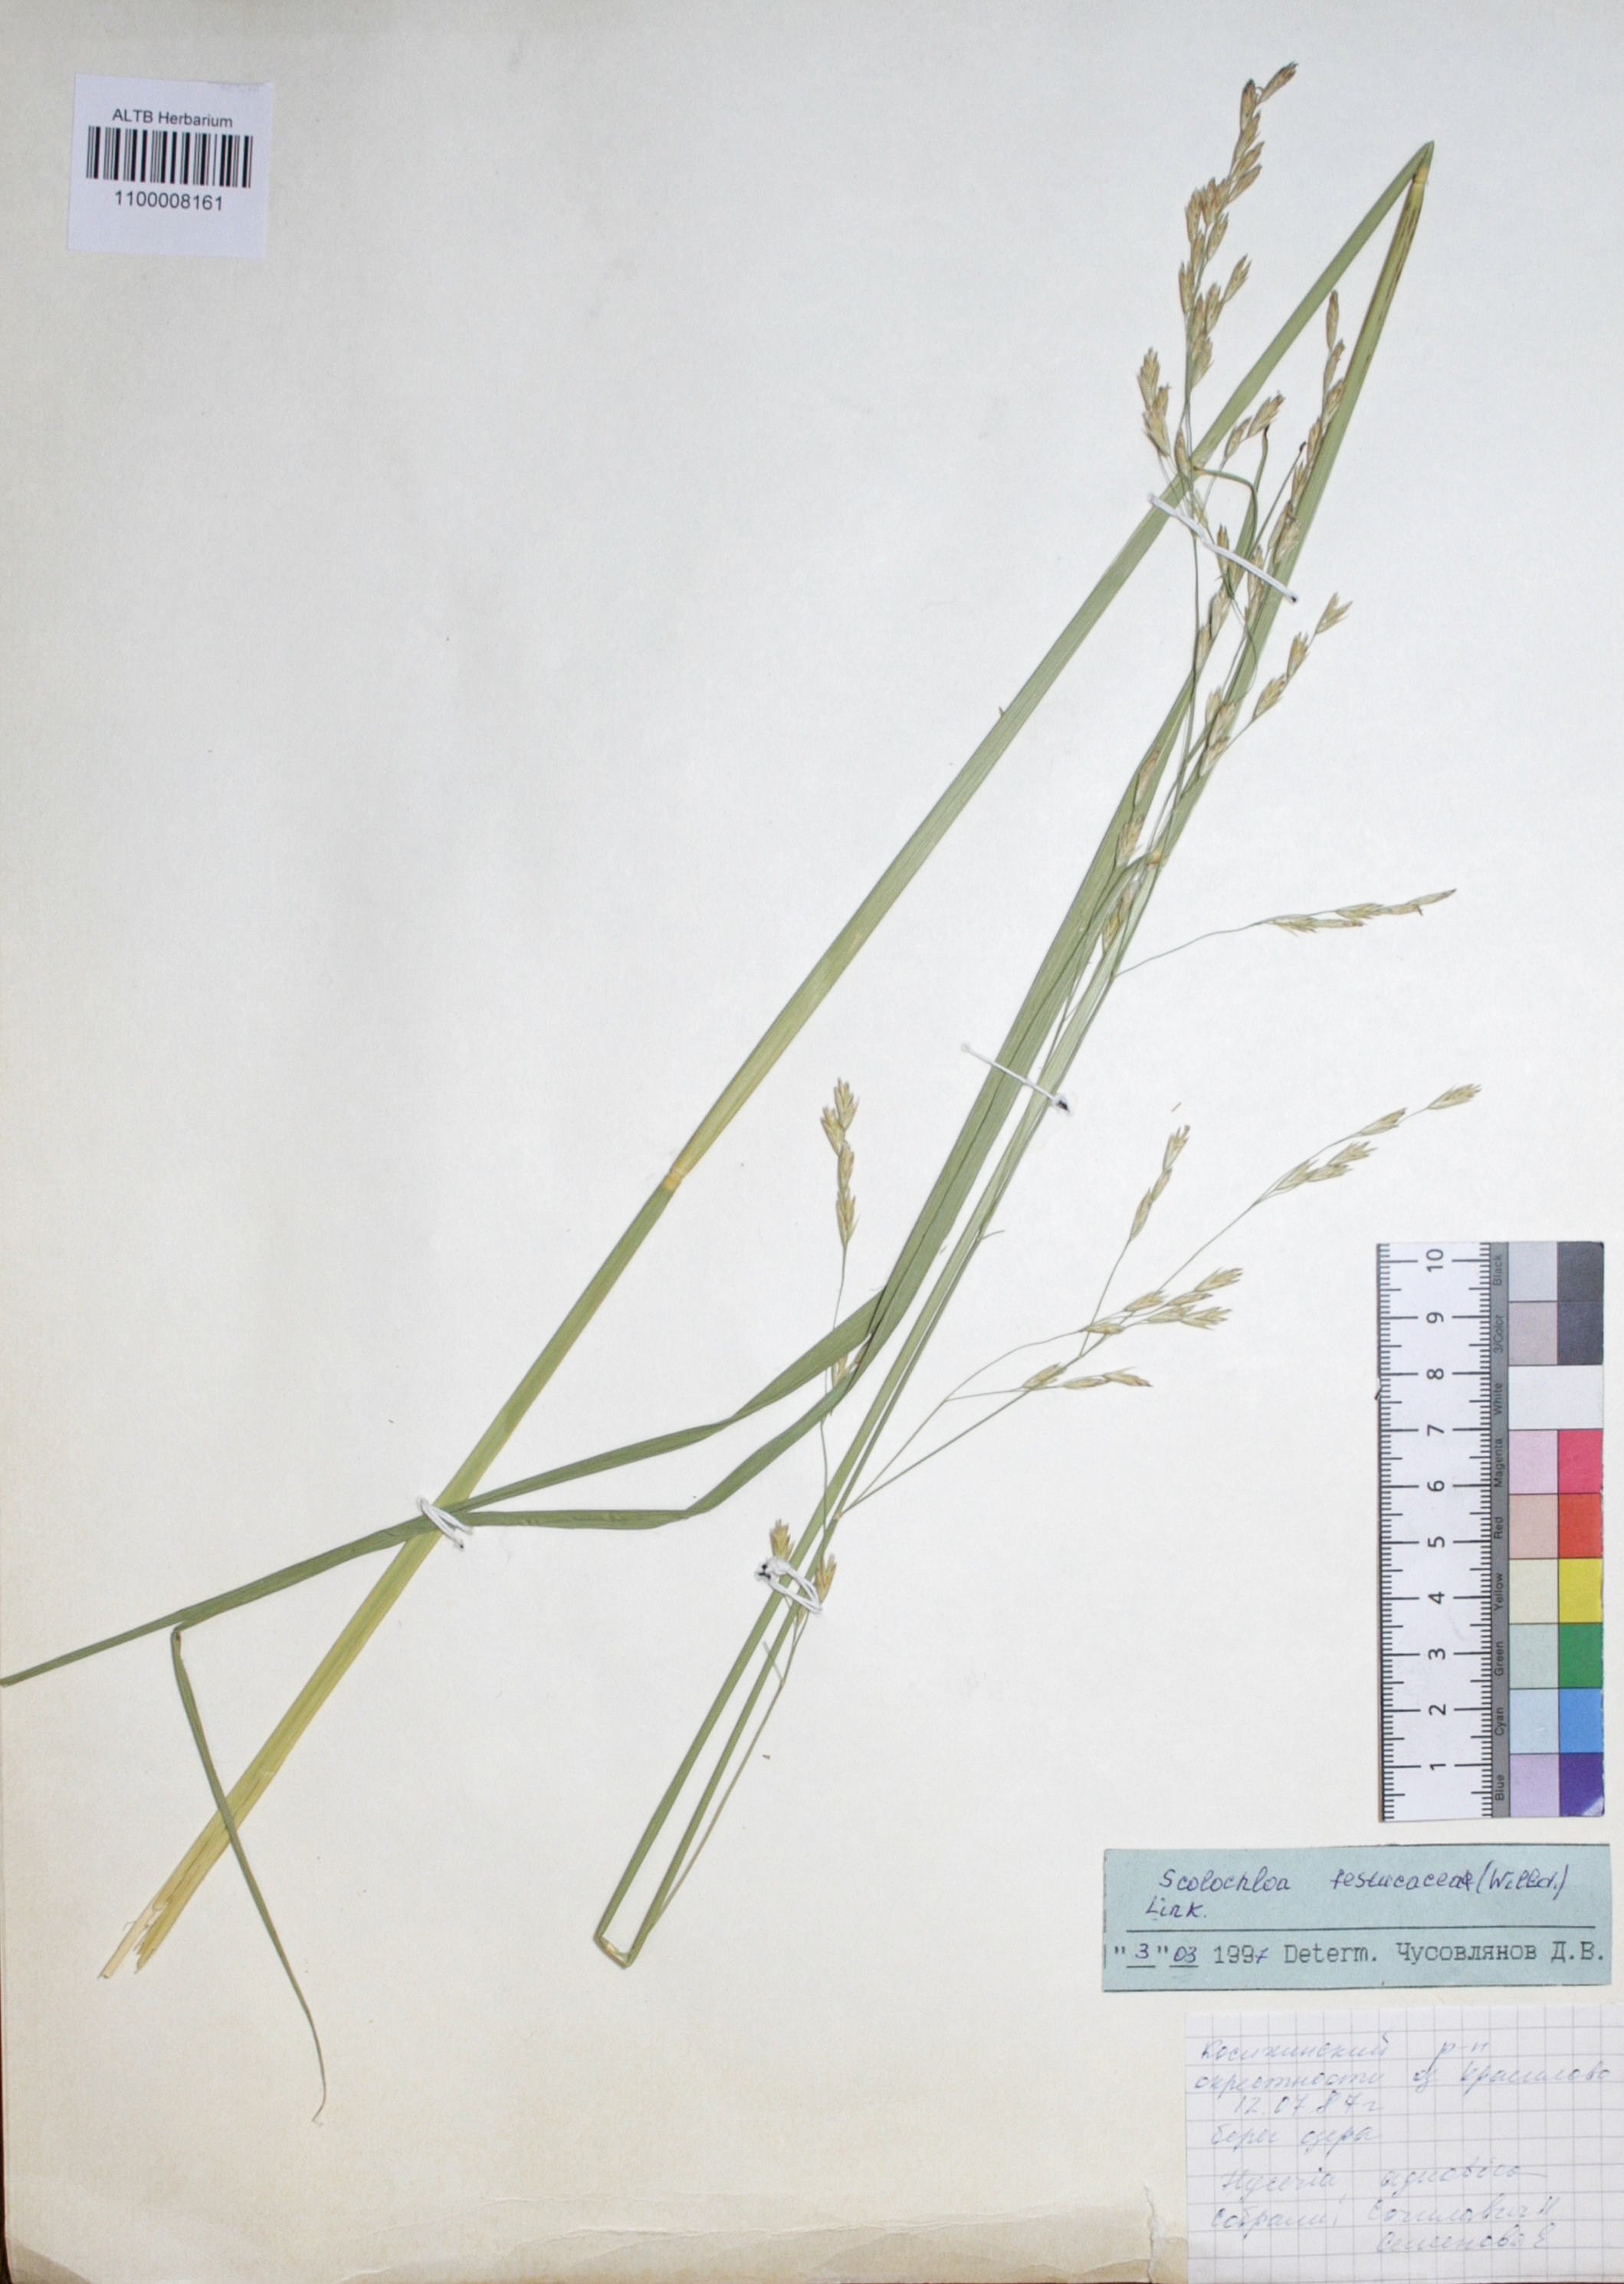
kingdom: Plantae
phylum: Tracheophyta
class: Liliopsida
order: Poales
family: Poaceae
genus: Scolochloa
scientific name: Scolochloa festucacea
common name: Common rivergrass
